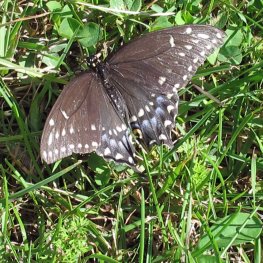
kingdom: Animalia
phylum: Arthropoda
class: Insecta
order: Lepidoptera
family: Papilionidae
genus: Papilio
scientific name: Papilio polyxenes
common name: Black Swallowtail
